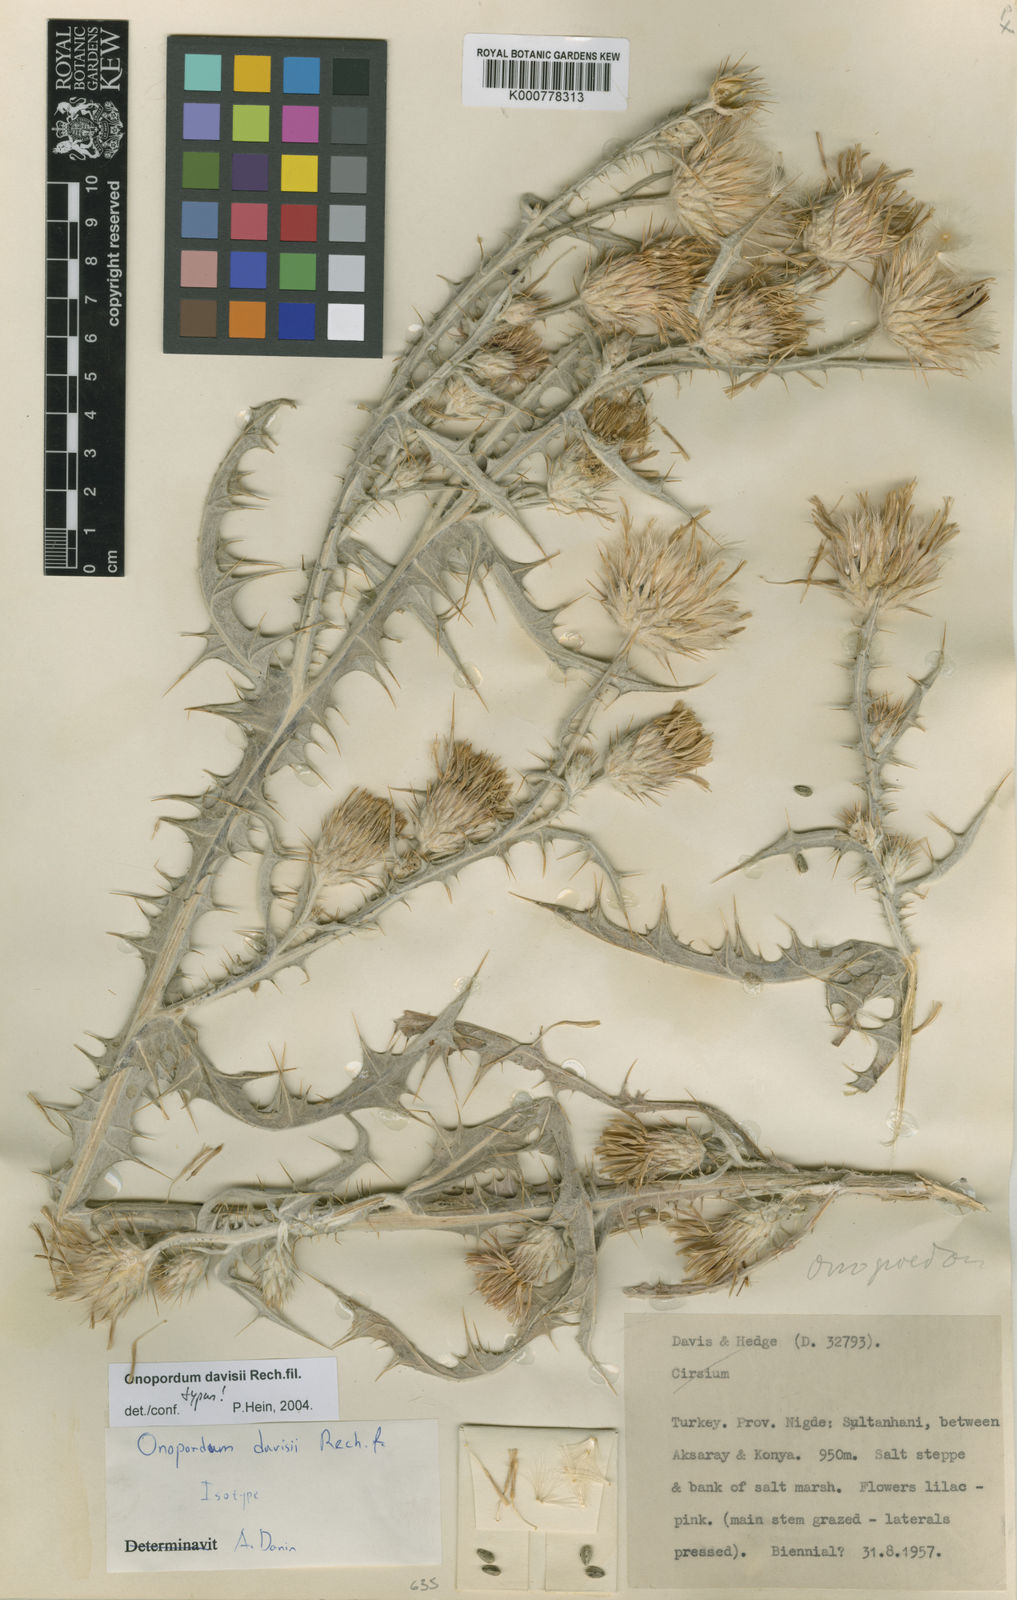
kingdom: Plantae
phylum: Tracheophyta
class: Magnoliopsida
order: Asterales
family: Asteraceae
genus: Onopordum
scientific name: Onopordum davisii
